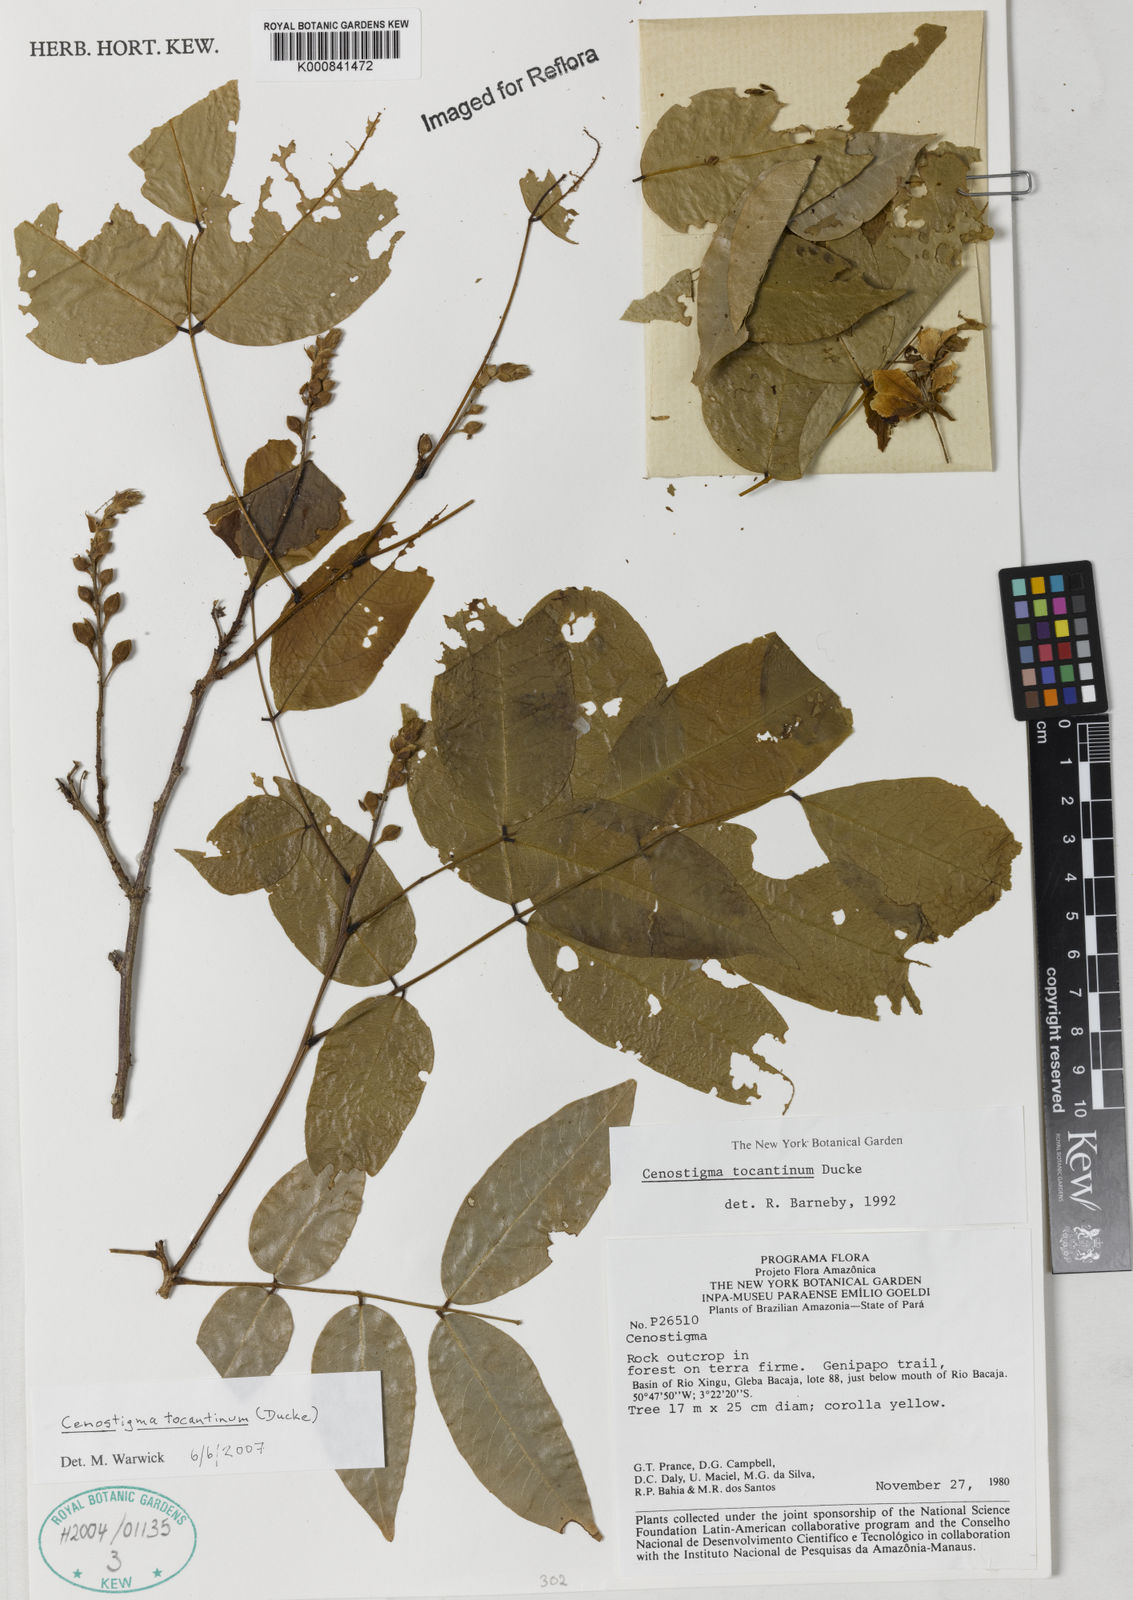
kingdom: Plantae
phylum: Tracheophyta
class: Magnoliopsida
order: Fabales
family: Fabaceae
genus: Cenostigma
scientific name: Cenostigma tocantinum
